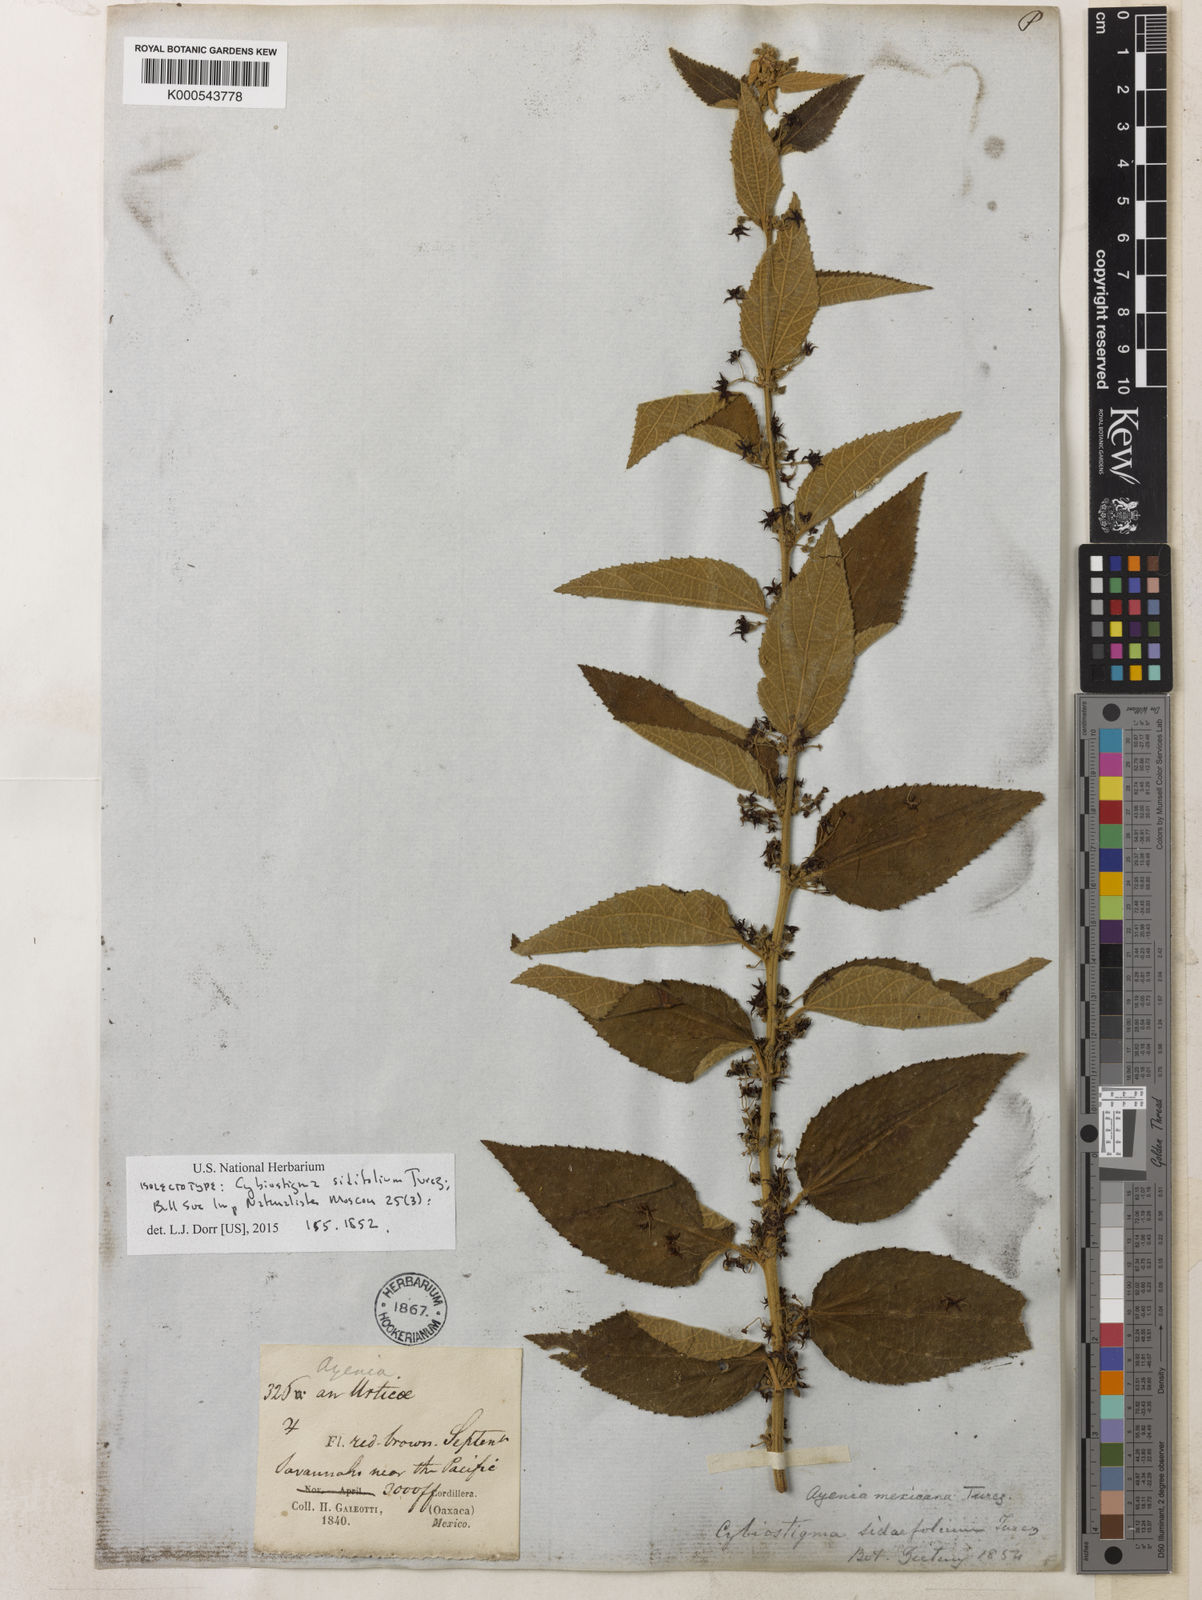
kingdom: Plantae
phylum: Tracheophyta
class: Magnoliopsida
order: Malvales
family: Malvaceae
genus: Ayenia
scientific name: Ayenia sidifolia
